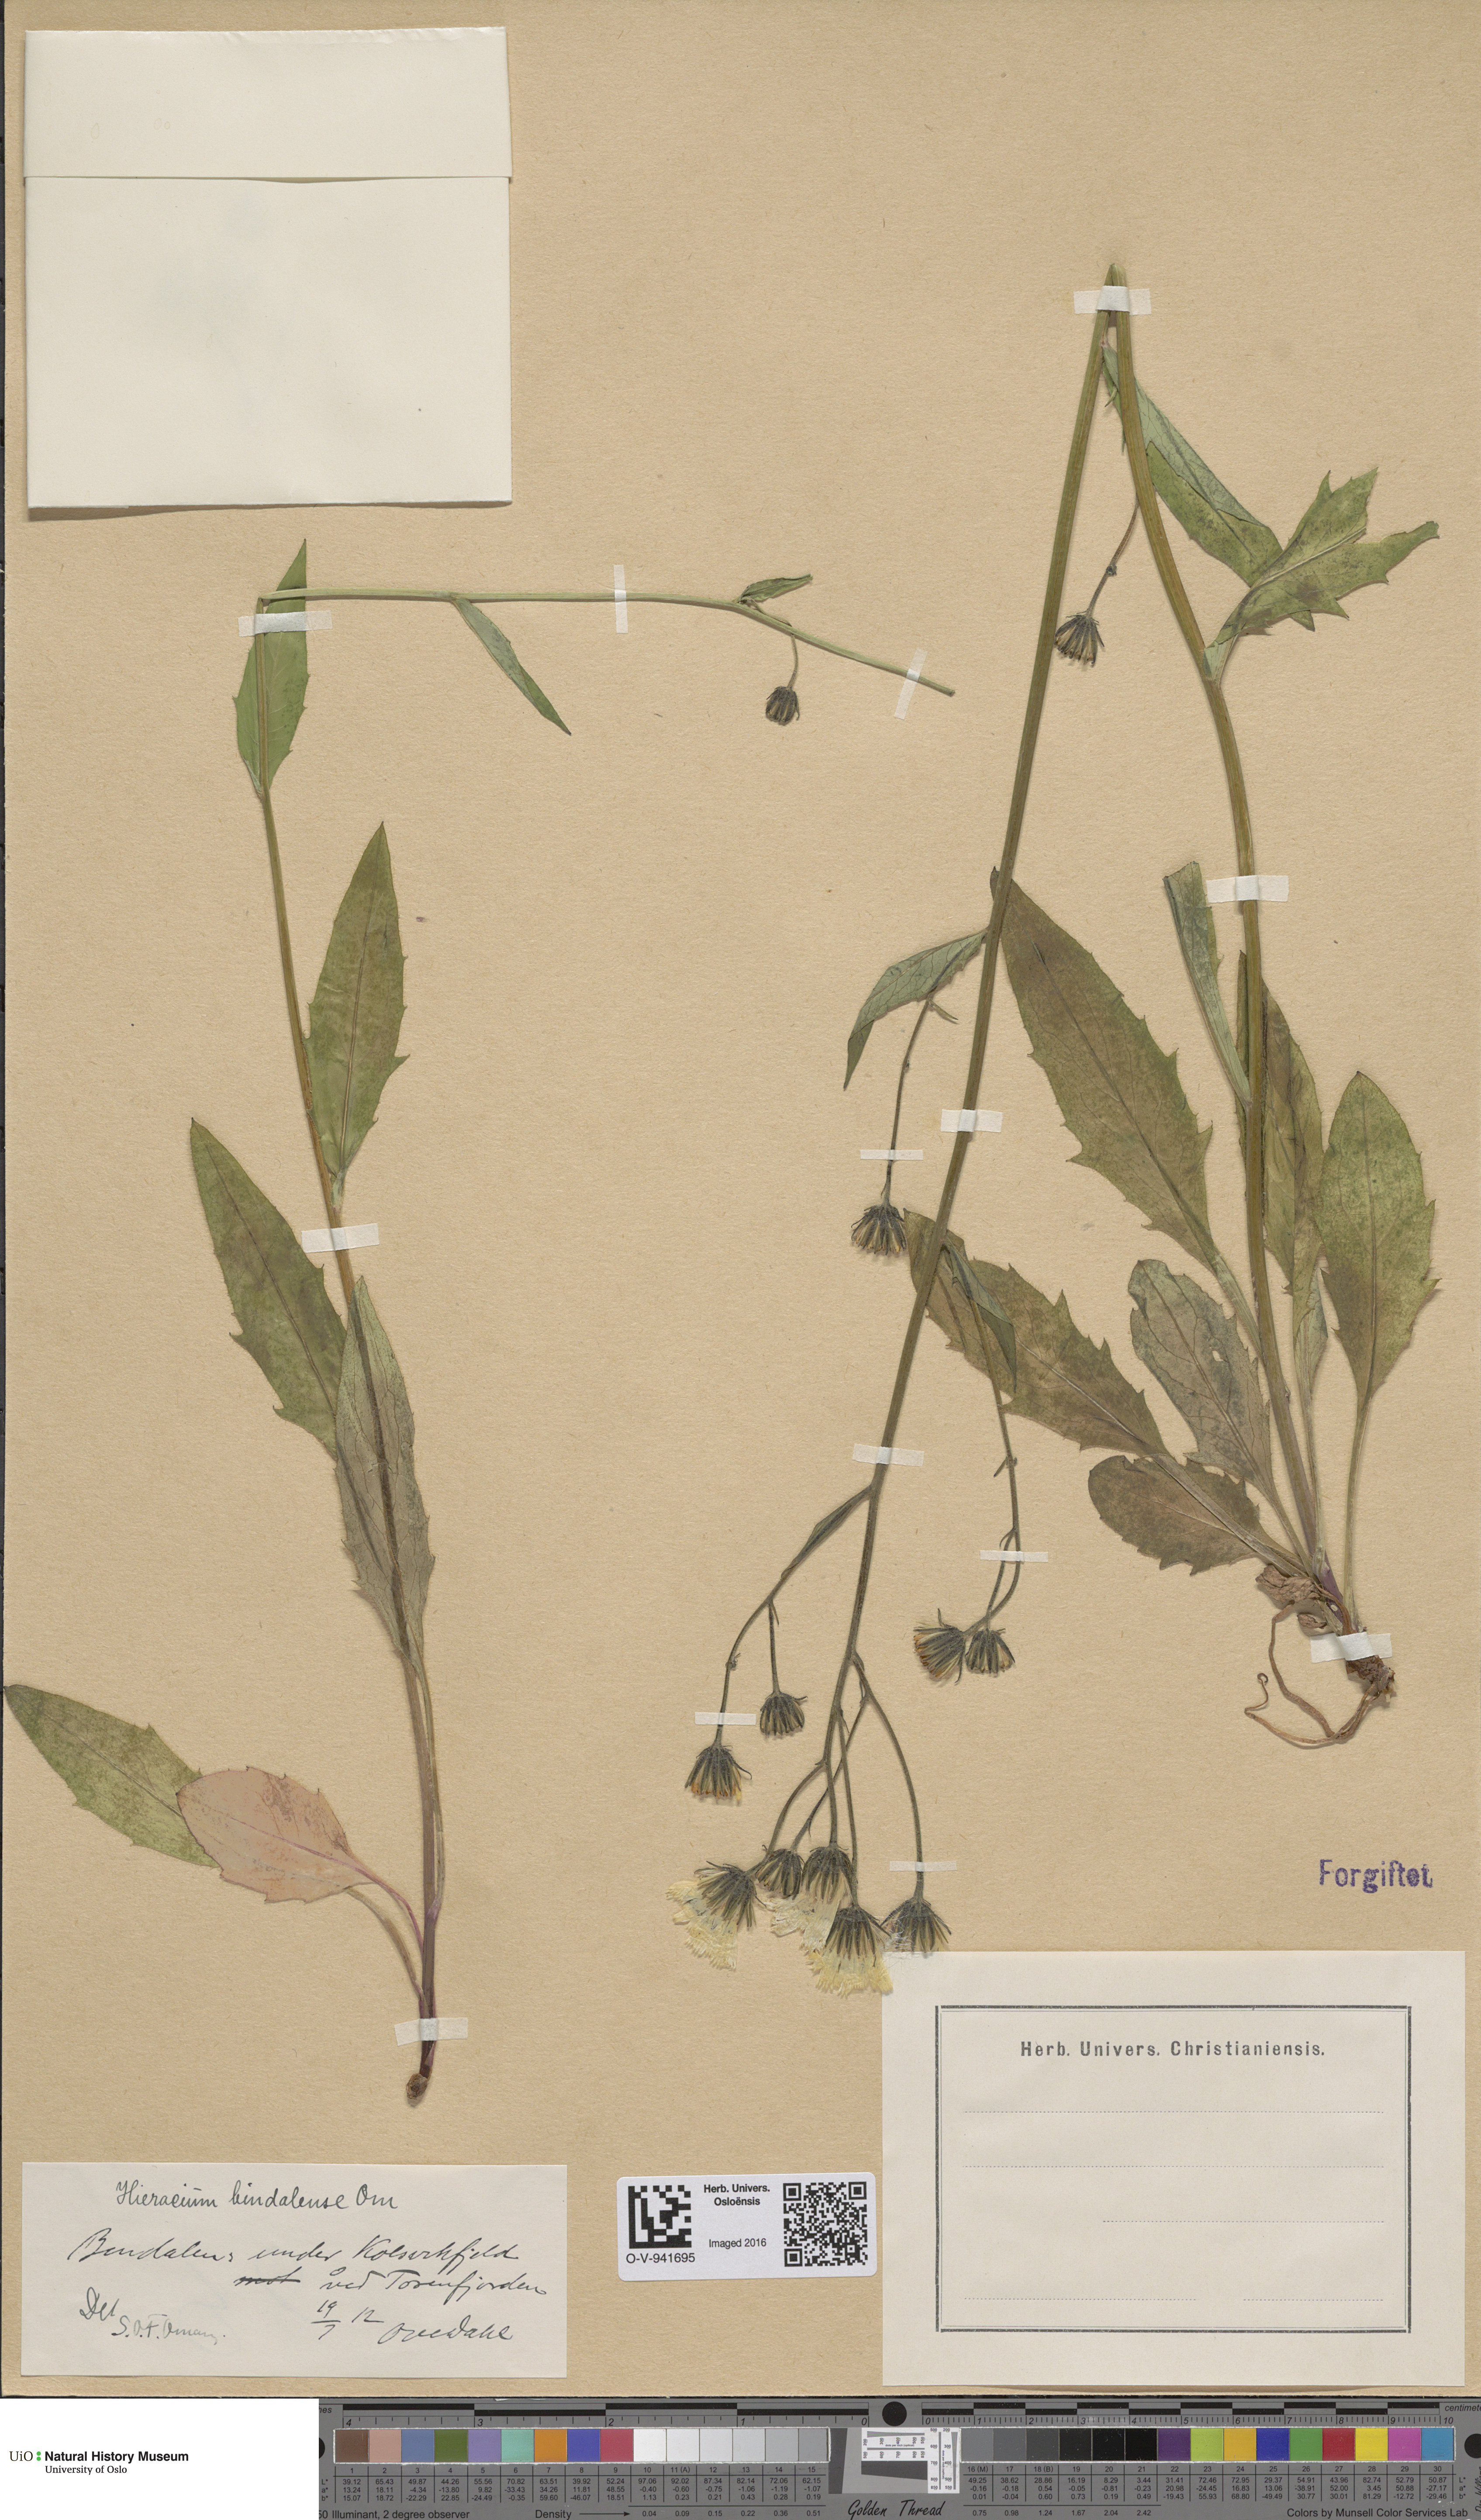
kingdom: Plantae
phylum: Tracheophyta
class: Magnoliopsida
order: Asterales
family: Asteraceae
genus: Hieracium
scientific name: Hieracium bindalense
